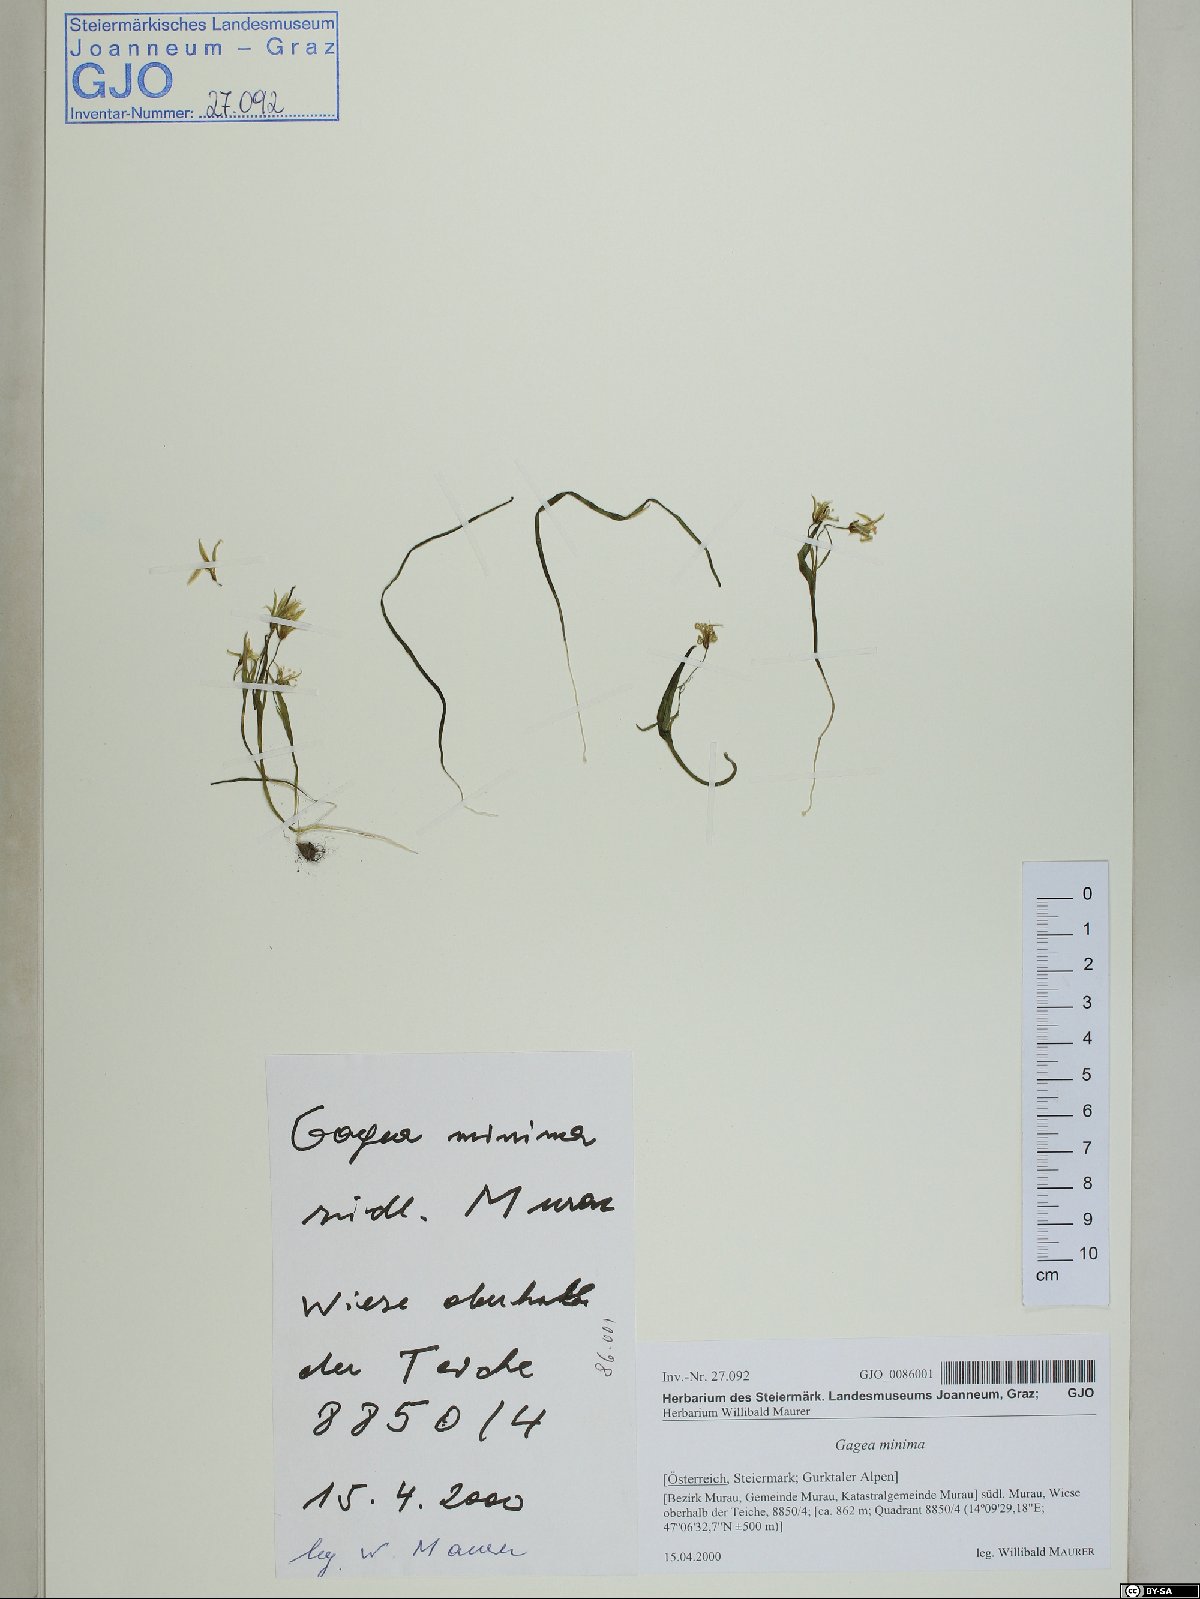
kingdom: Plantae
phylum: Tracheophyta
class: Liliopsida
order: Liliales
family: Liliaceae
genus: Gagea
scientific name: Gagea minima
